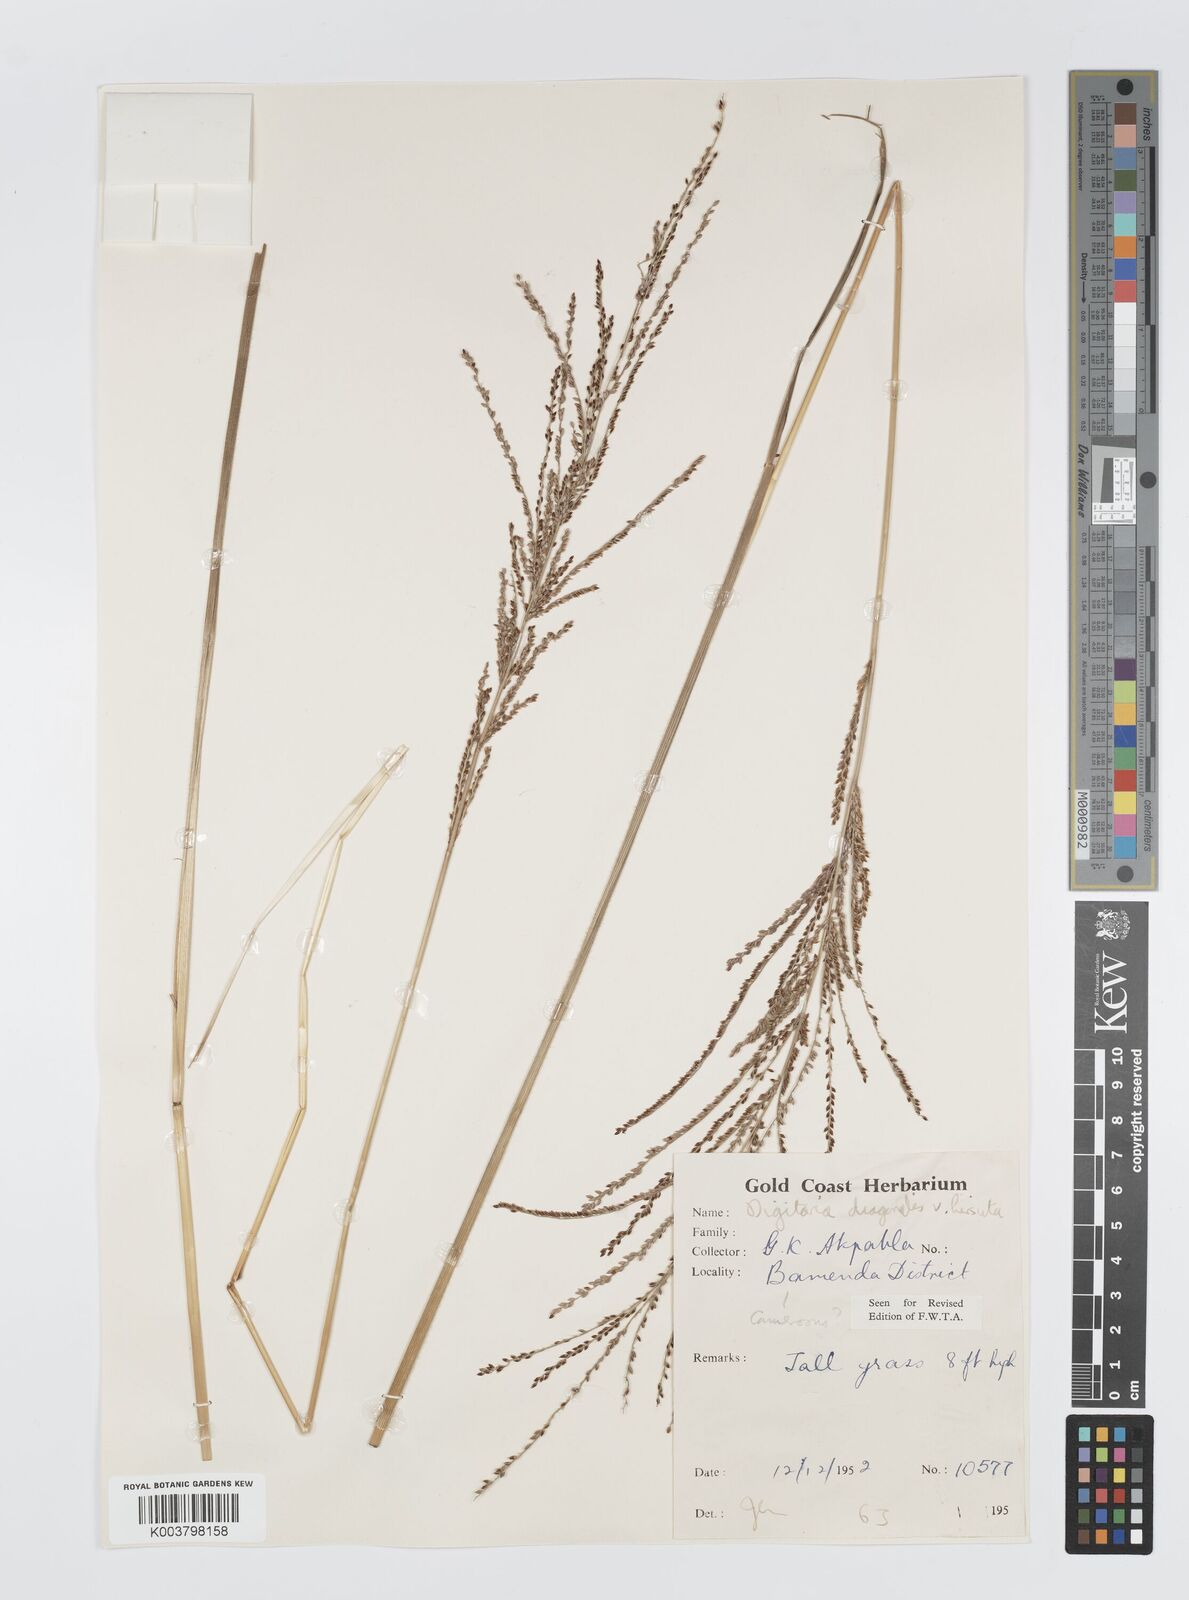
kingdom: Plantae
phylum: Tracheophyta
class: Liliopsida
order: Poales
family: Poaceae
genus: Digitaria
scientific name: Digitaria diagonalis
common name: Brown-seed finger grass
